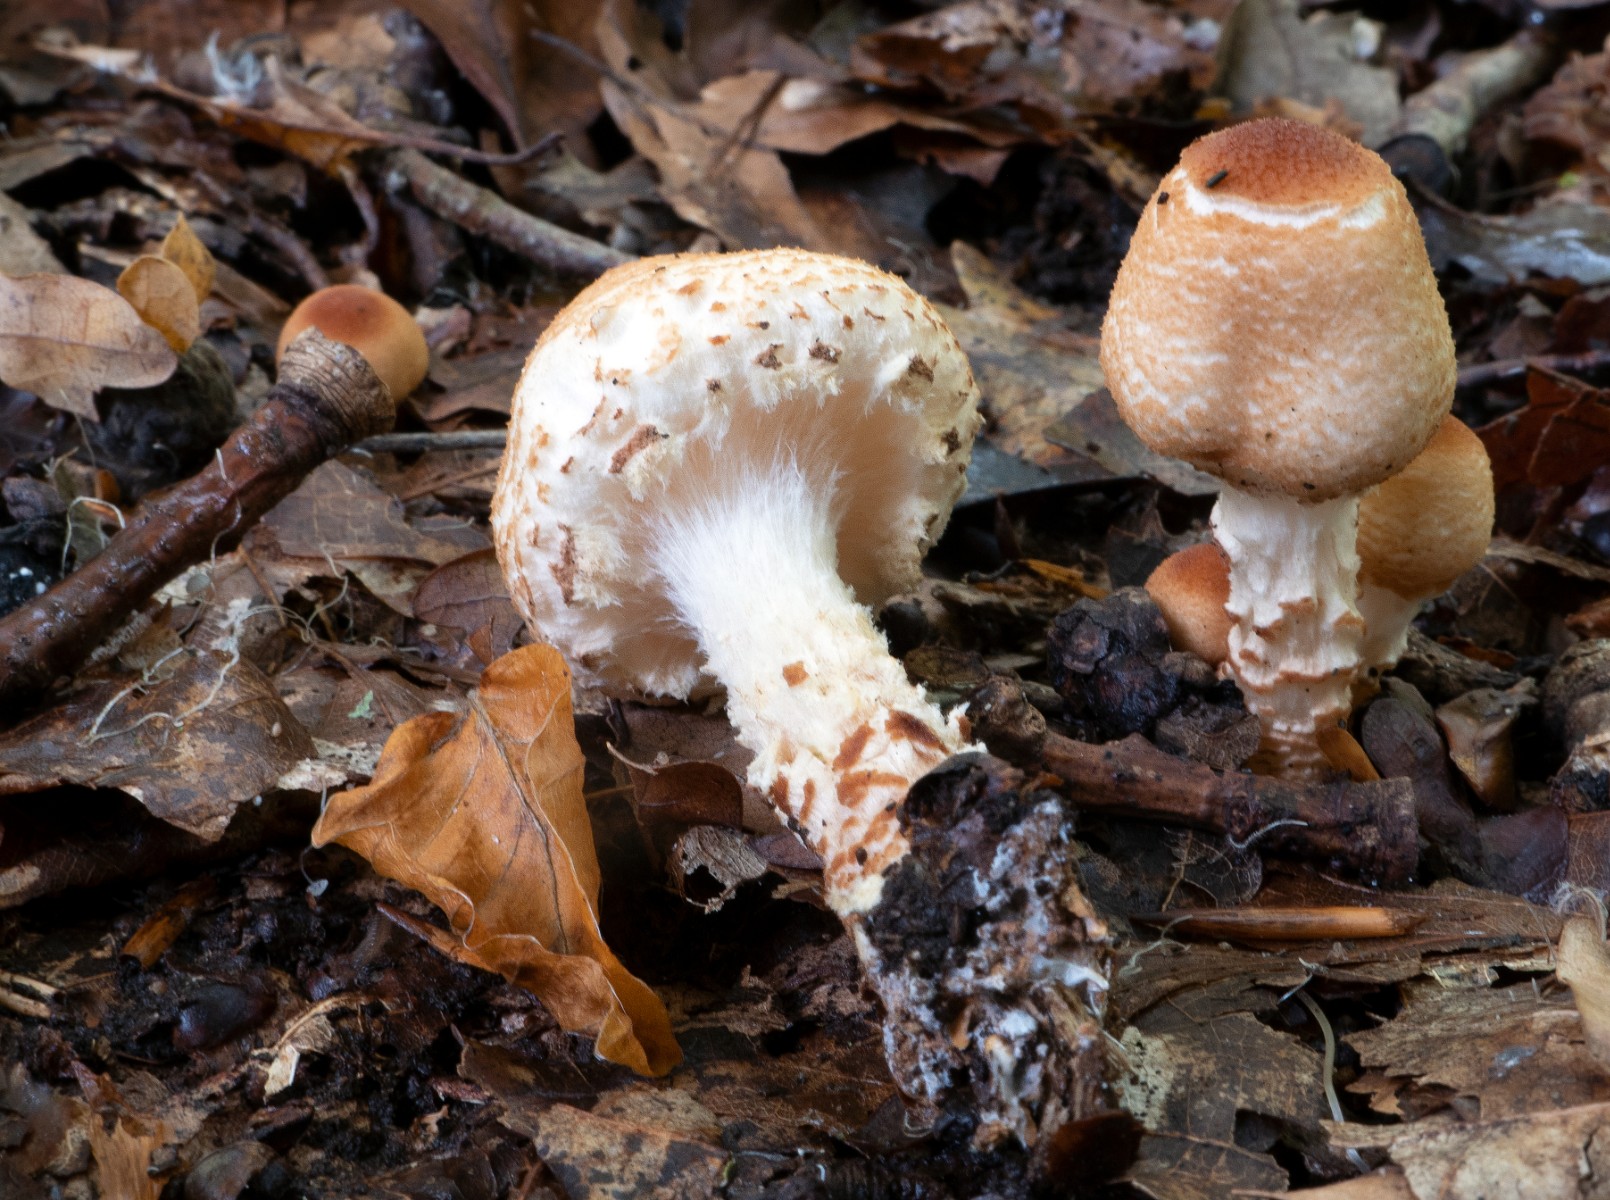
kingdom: Fungi
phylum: Basidiomycota
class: Agaricomycetes
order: Agaricales
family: Agaricaceae
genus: Lepiota
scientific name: Lepiota magnispora
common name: gulfnugget parasolhat
